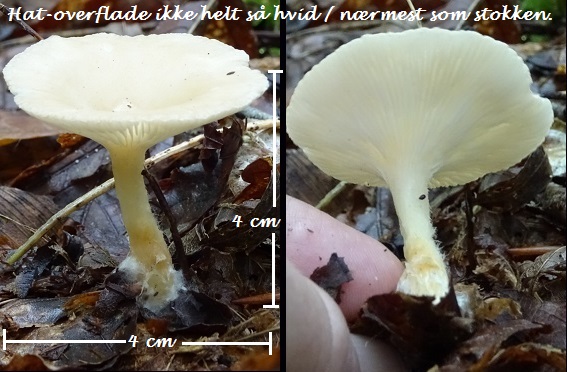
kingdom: Fungi
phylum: Basidiomycota
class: Agaricomycetes
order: Agaricales
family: Tricholomataceae
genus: Infundibulicybe
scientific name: Infundibulicybe gibba
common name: almindelig tragthat
